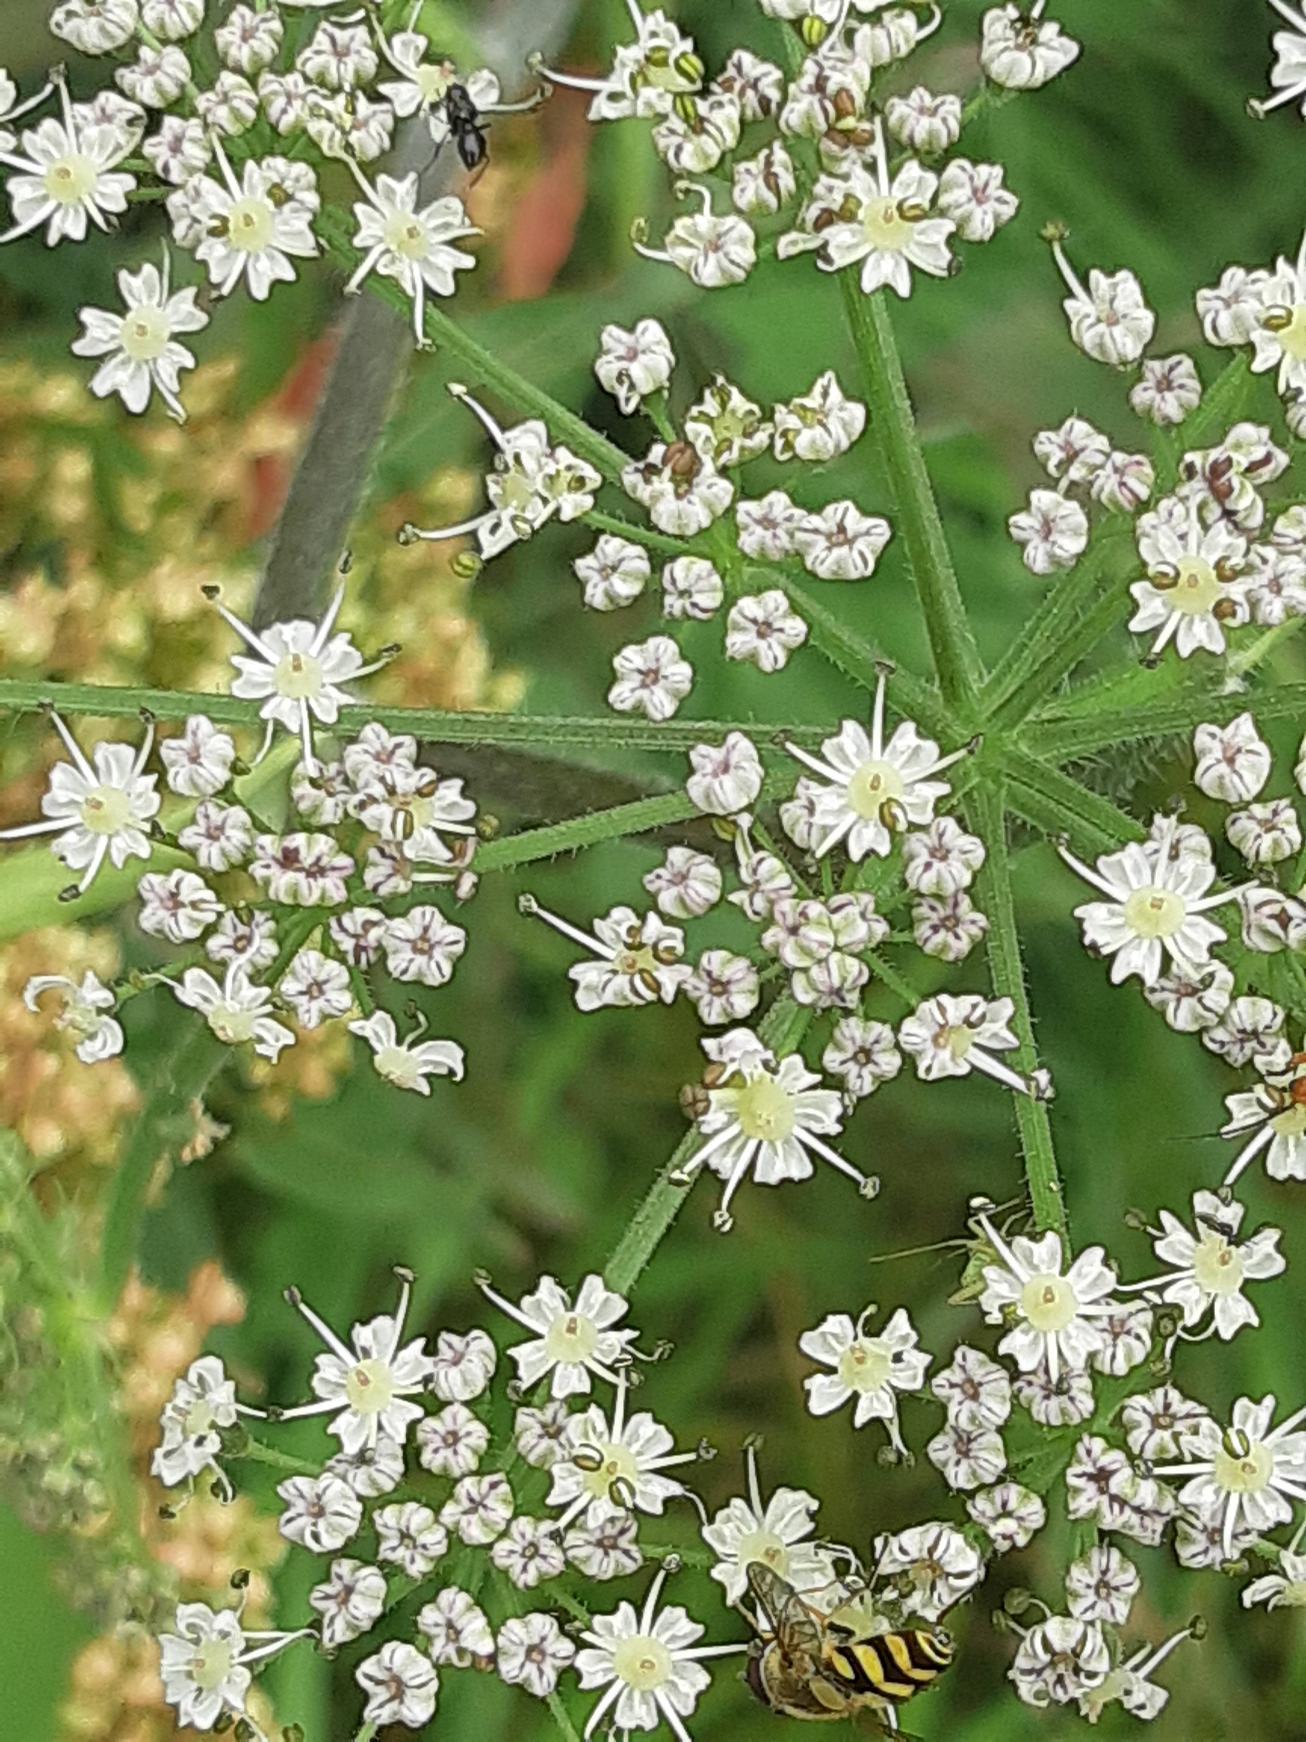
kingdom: Plantae
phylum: Tracheophyta
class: Magnoliopsida
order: Apiales
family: Apiaceae
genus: Heracleum
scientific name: Heracleum sphondylium
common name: Almindelig bjørneklo
